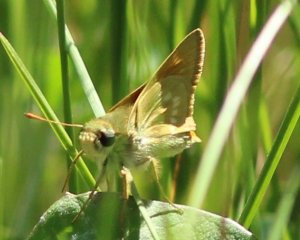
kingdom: Animalia
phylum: Arthropoda
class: Insecta
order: Lepidoptera
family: Hesperiidae
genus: Polites
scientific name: Polites mystic
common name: Sonoran Skipper
